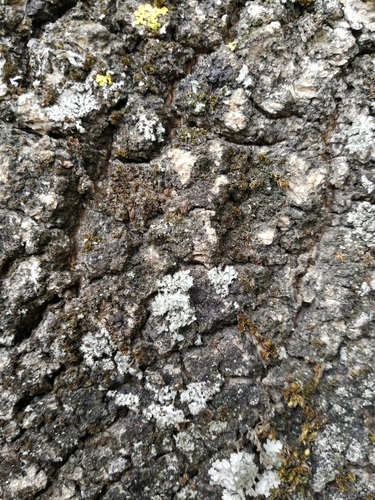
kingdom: Fungi
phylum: Ascomycota
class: Lecanoromycetes
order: Caliciales
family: Physciaceae
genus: Phaeophyscia
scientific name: Phaeophyscia hirsuta
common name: Hairy shadow lichen
